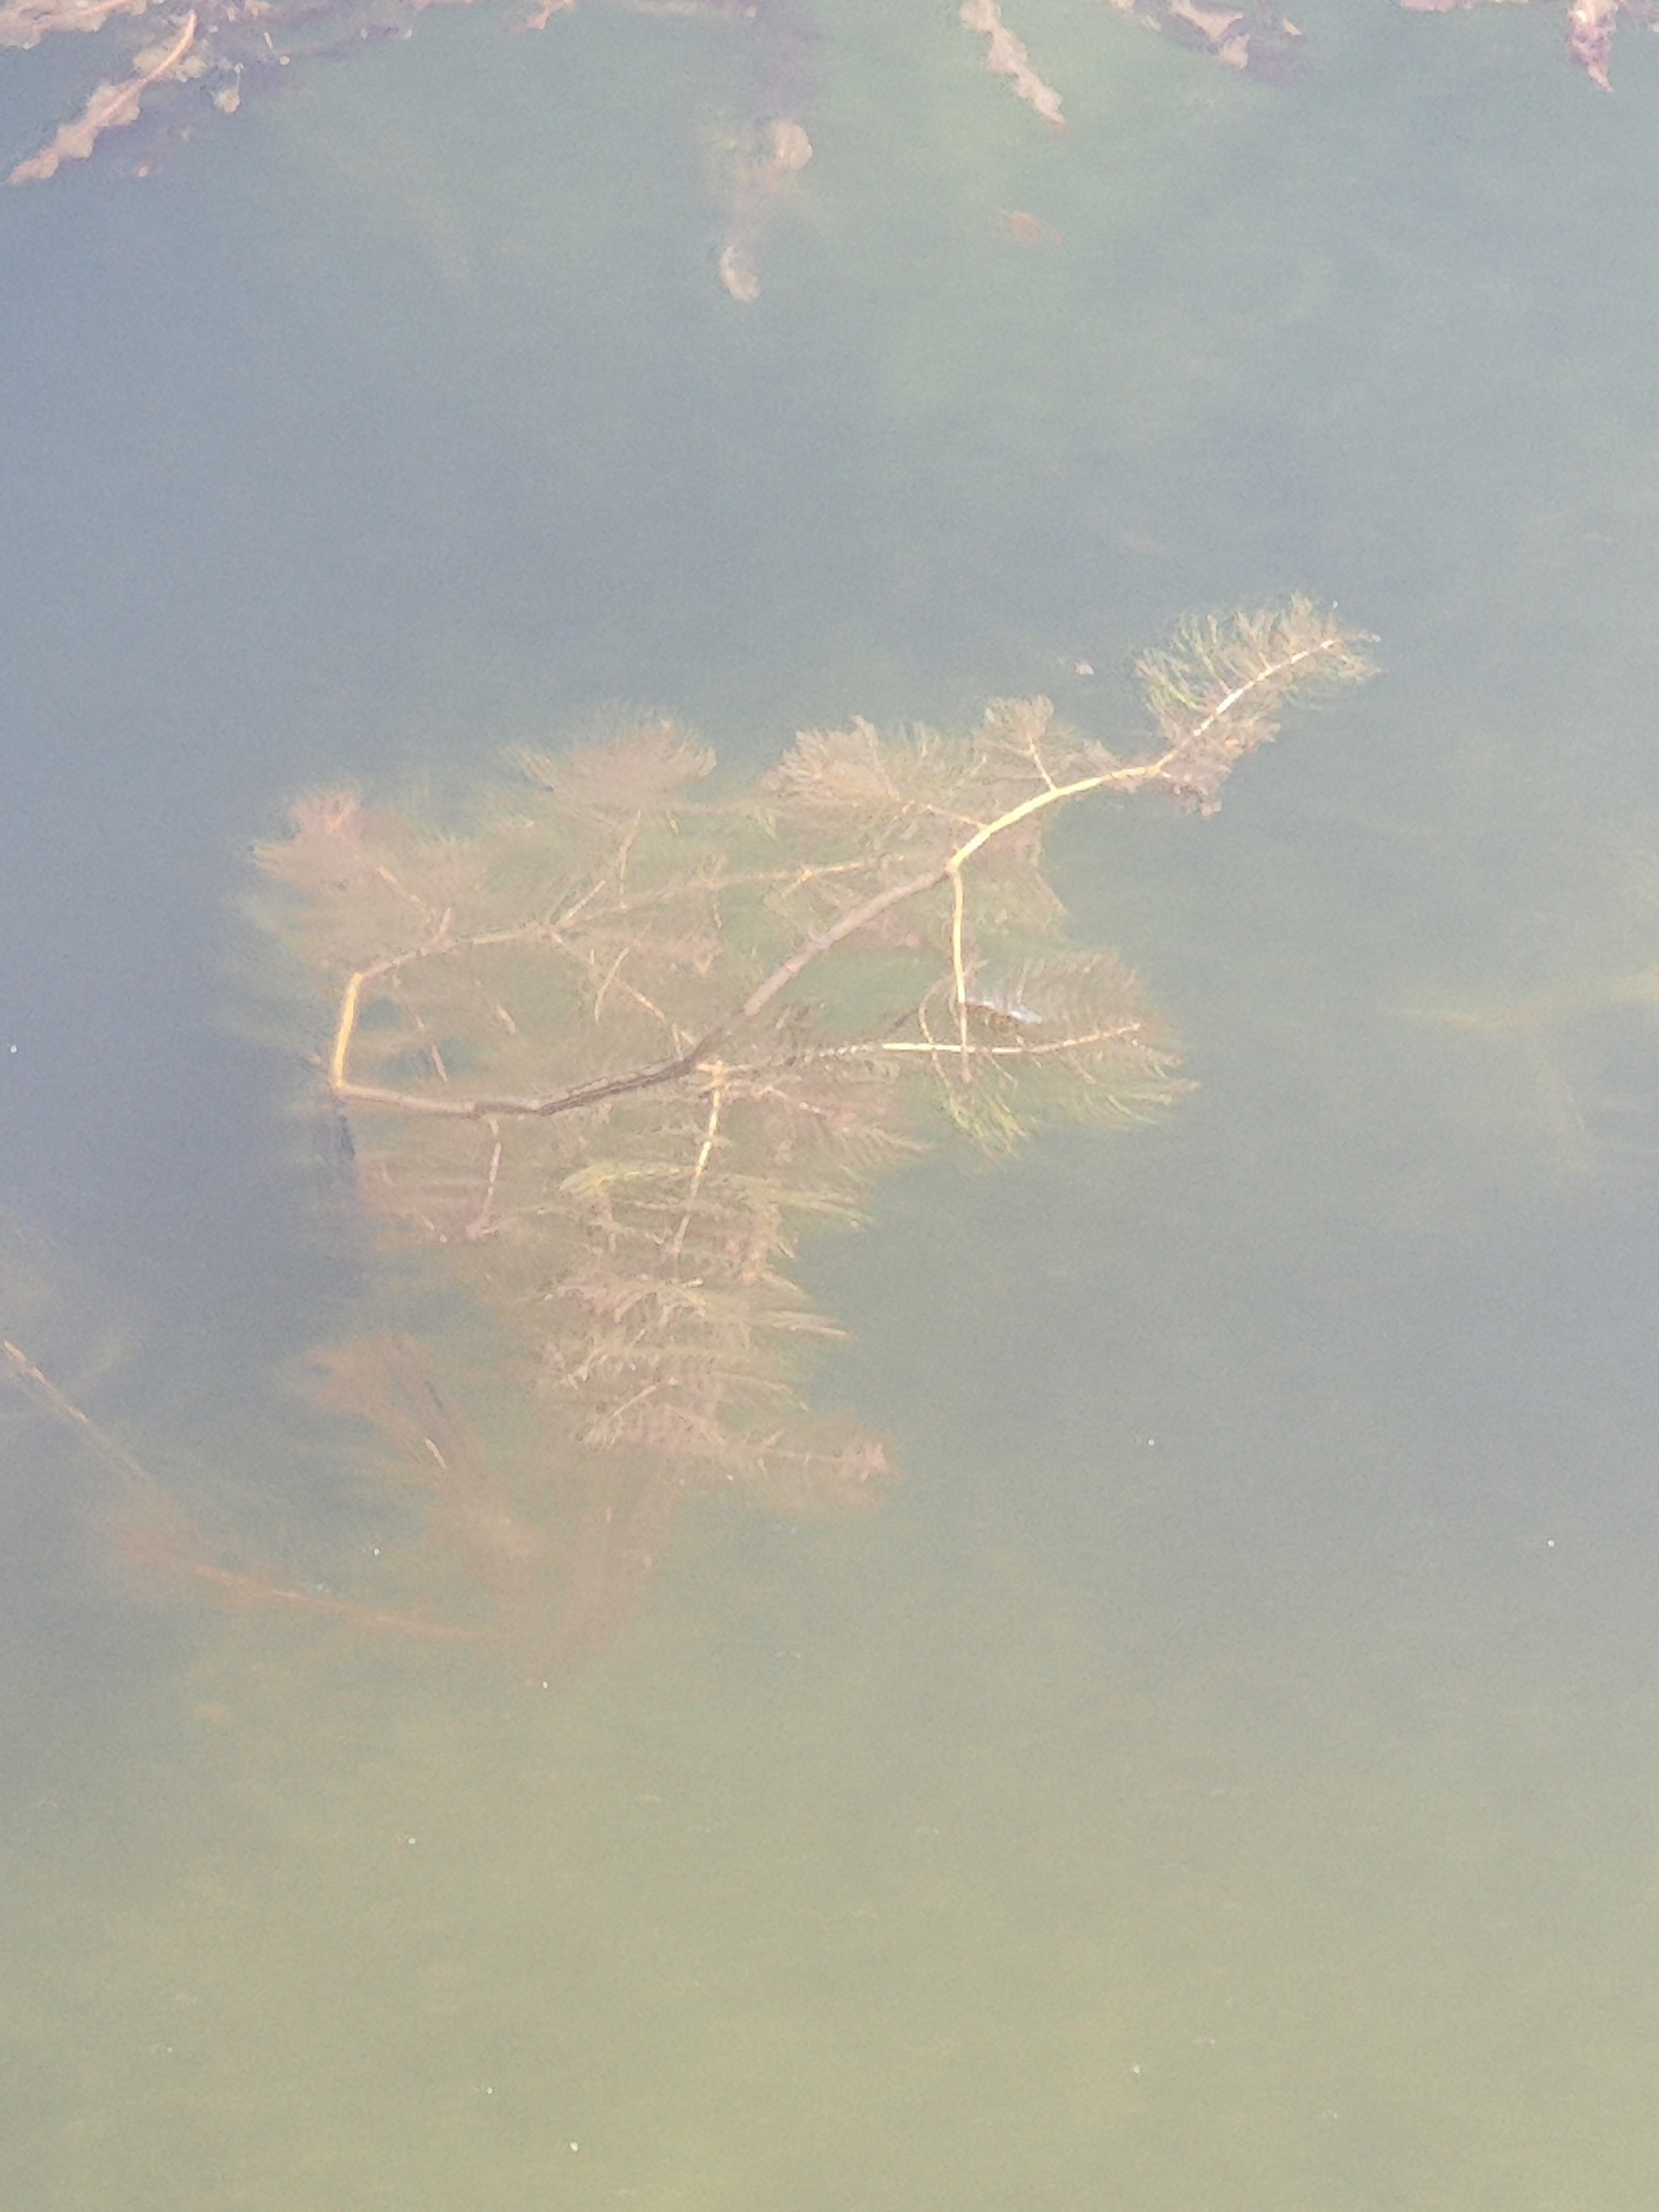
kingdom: Plantae
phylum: Tracheophyta
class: Magnoliopsida
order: Saxifragales
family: Haloragaceae
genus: Myriophyllum
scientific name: Myriophyllum spicatum
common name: Aks-tusindblad
